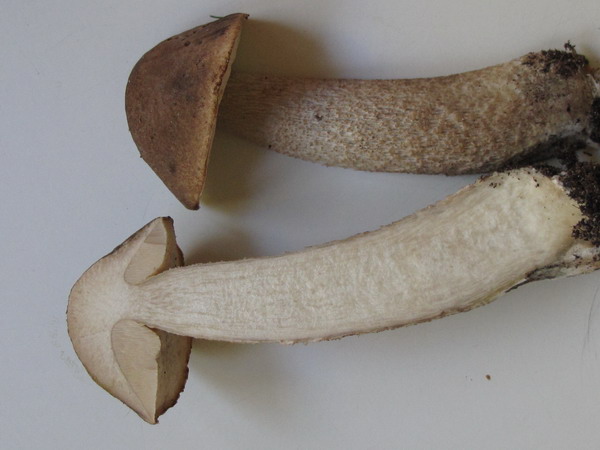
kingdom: Fungi
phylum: Basidiomycota
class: Agaricomycetes
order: Boletales
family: Boletaceae
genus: Leccinum
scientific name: Leccinum cyaneobasileucum
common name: almindelig skælrørhat
